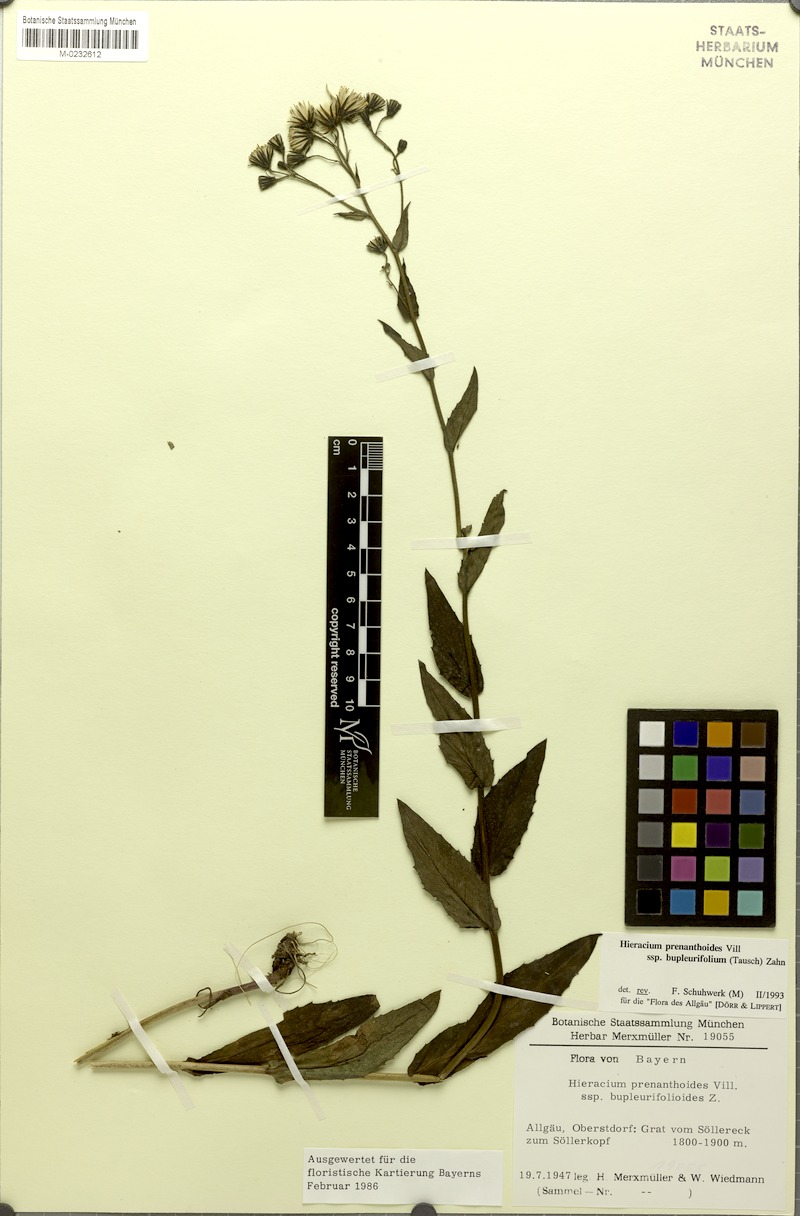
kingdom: Plantae
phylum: Tracheophyta
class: Magnoliopsida
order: Asterales
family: Asteraceae
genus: Hieracium
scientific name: Hieracium prenanthoides
